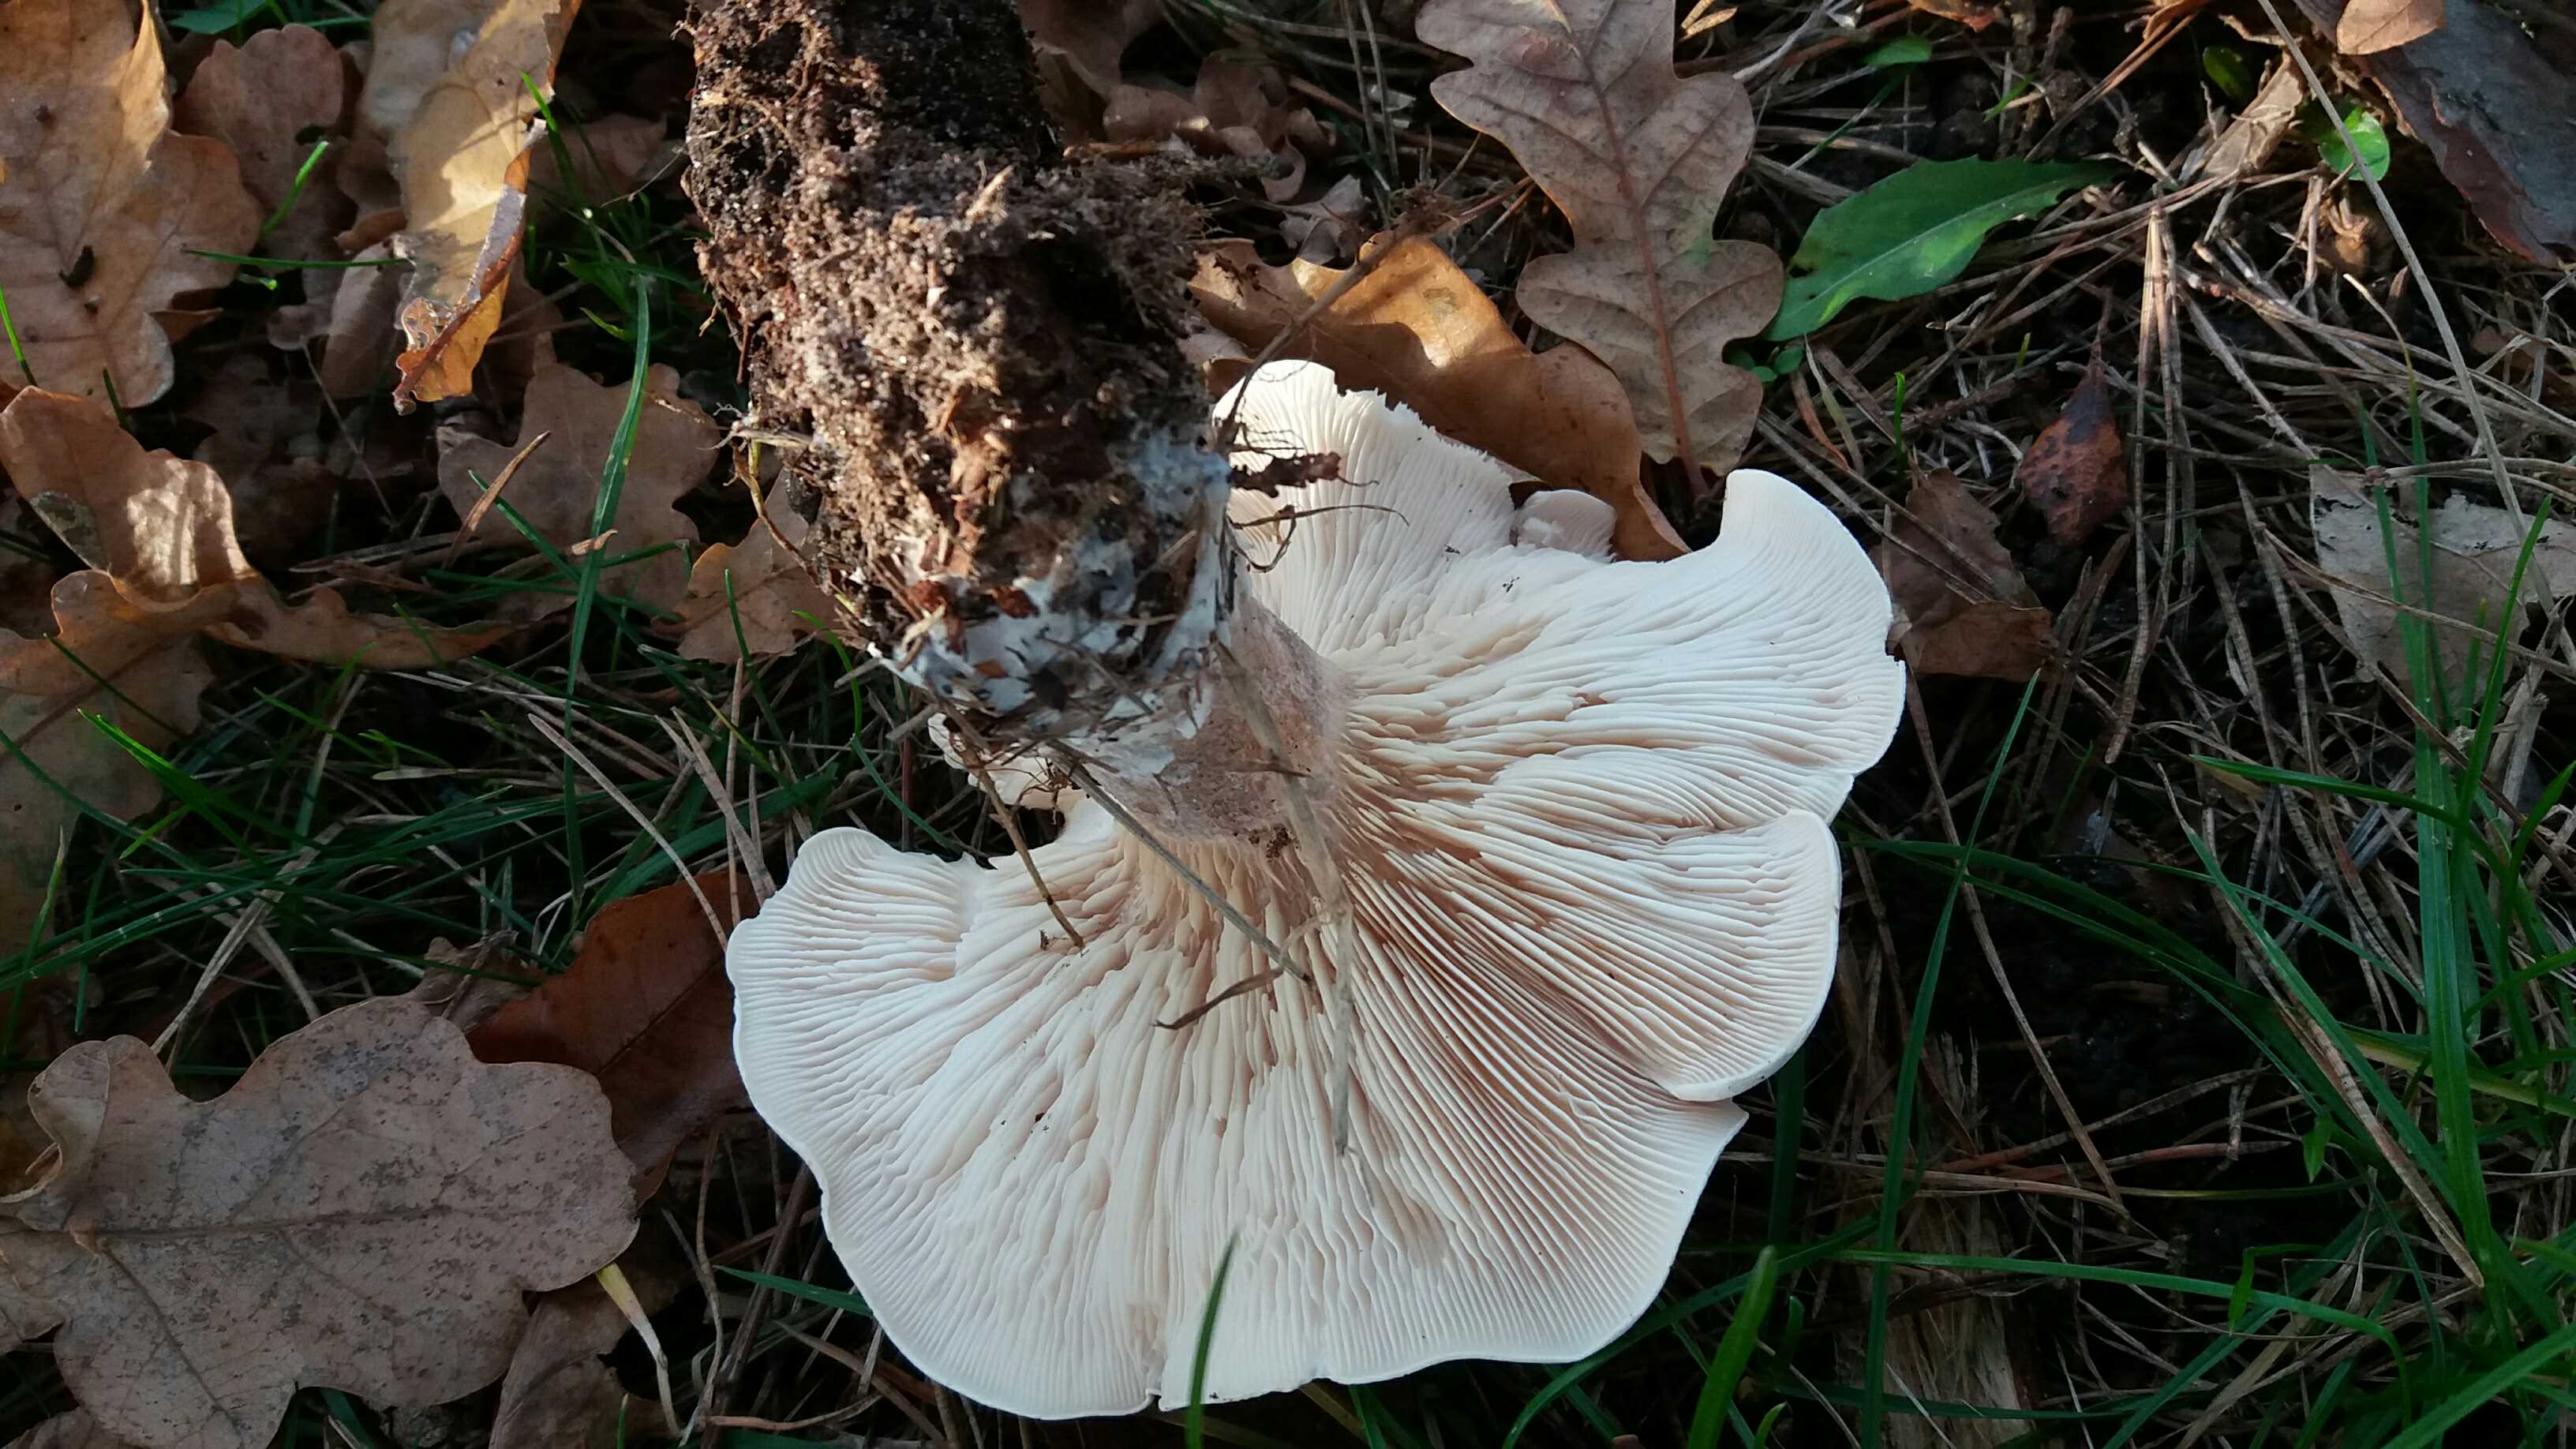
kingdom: Fungi
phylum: Basidiomycota
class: Agaricomycetes
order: Agaricales
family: Tricholomataceae
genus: Clitocybe
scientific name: Clitocybe nebularis
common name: tåge-tragthat
